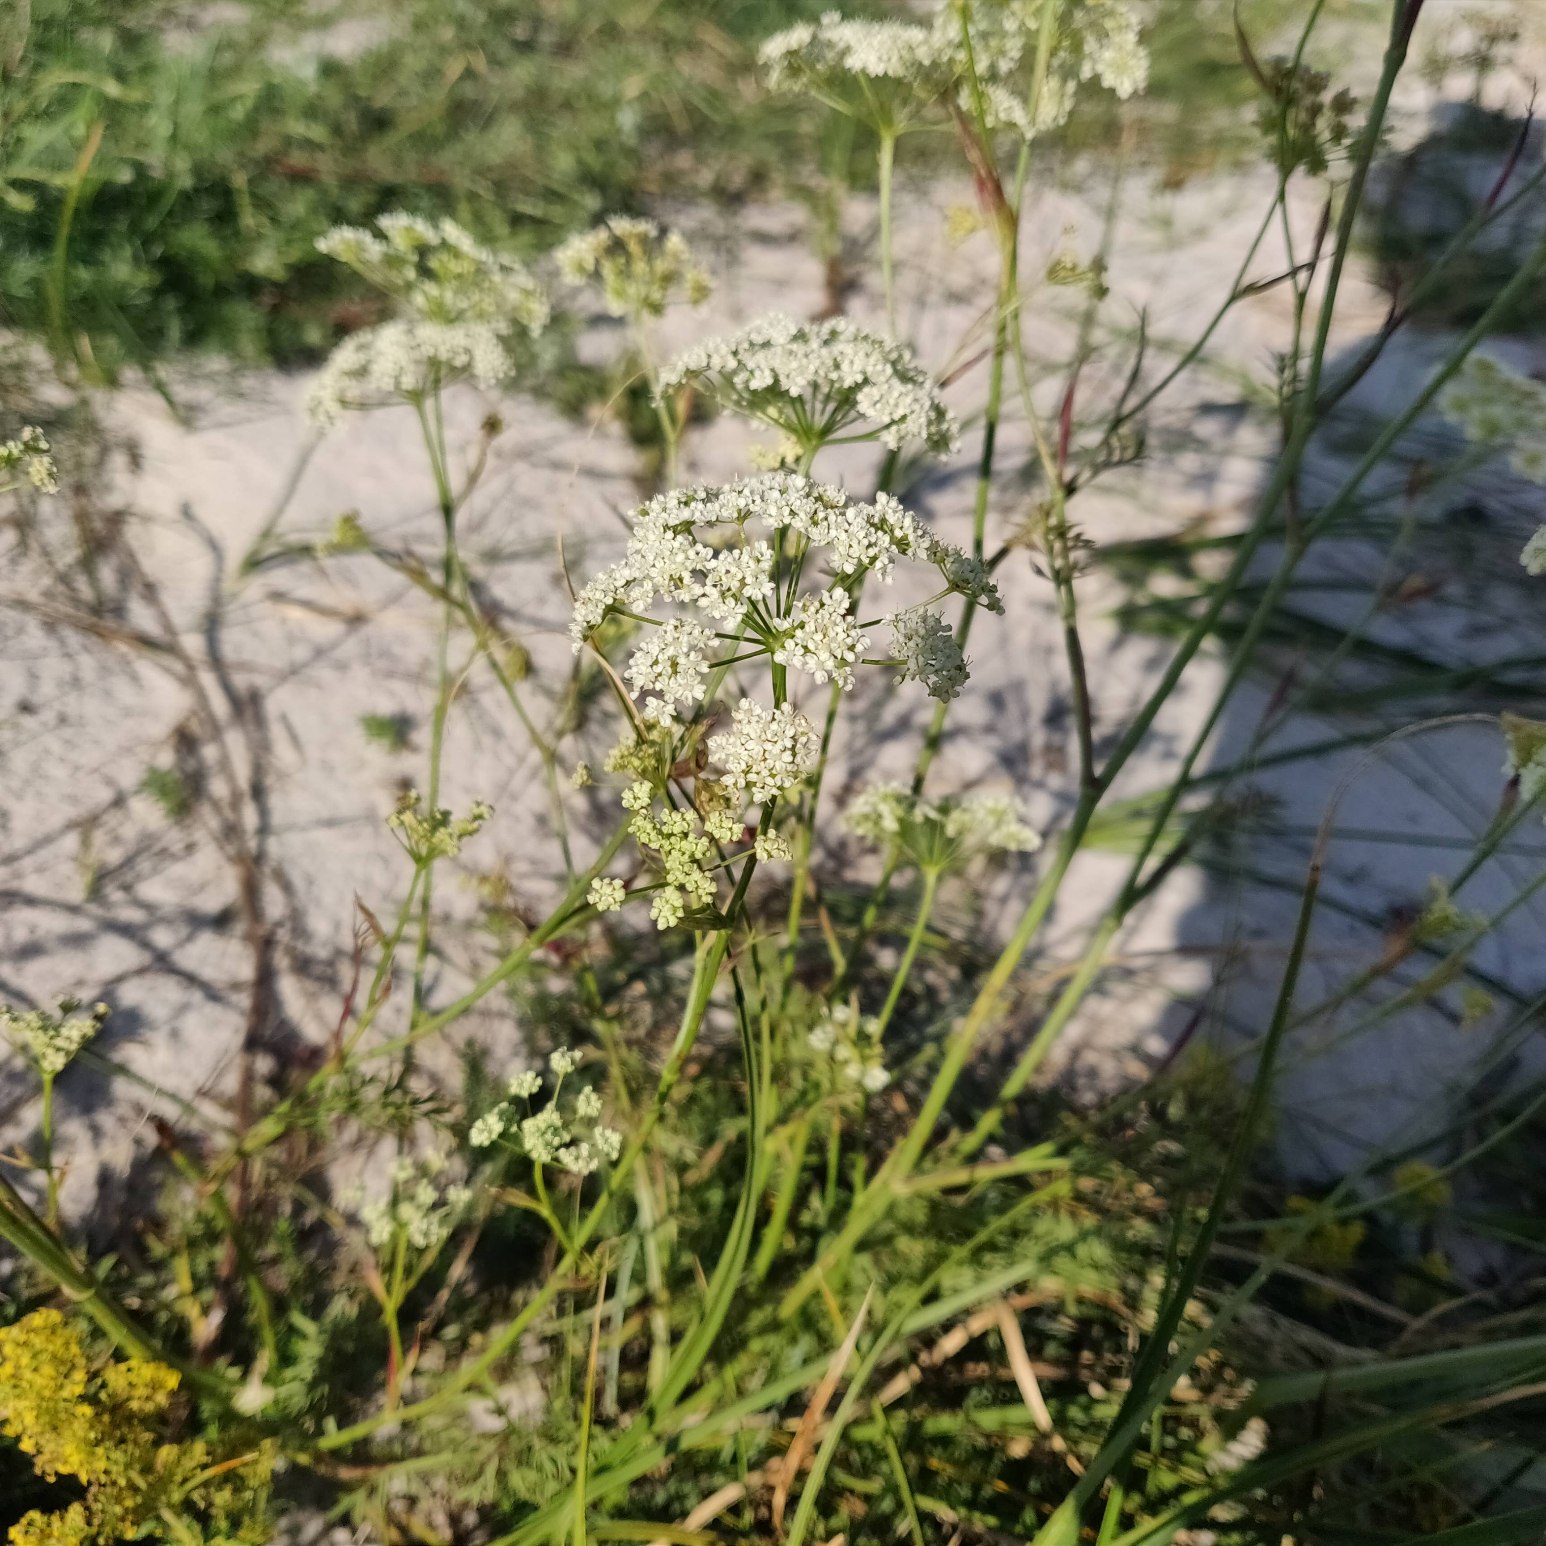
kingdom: Plantae
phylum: Tracheophyta
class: Magnoliopsida
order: Apiales
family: Apiaceae
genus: Pimpinella
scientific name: Pimpinella saxifraga
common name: Almindelig pimpinelle
